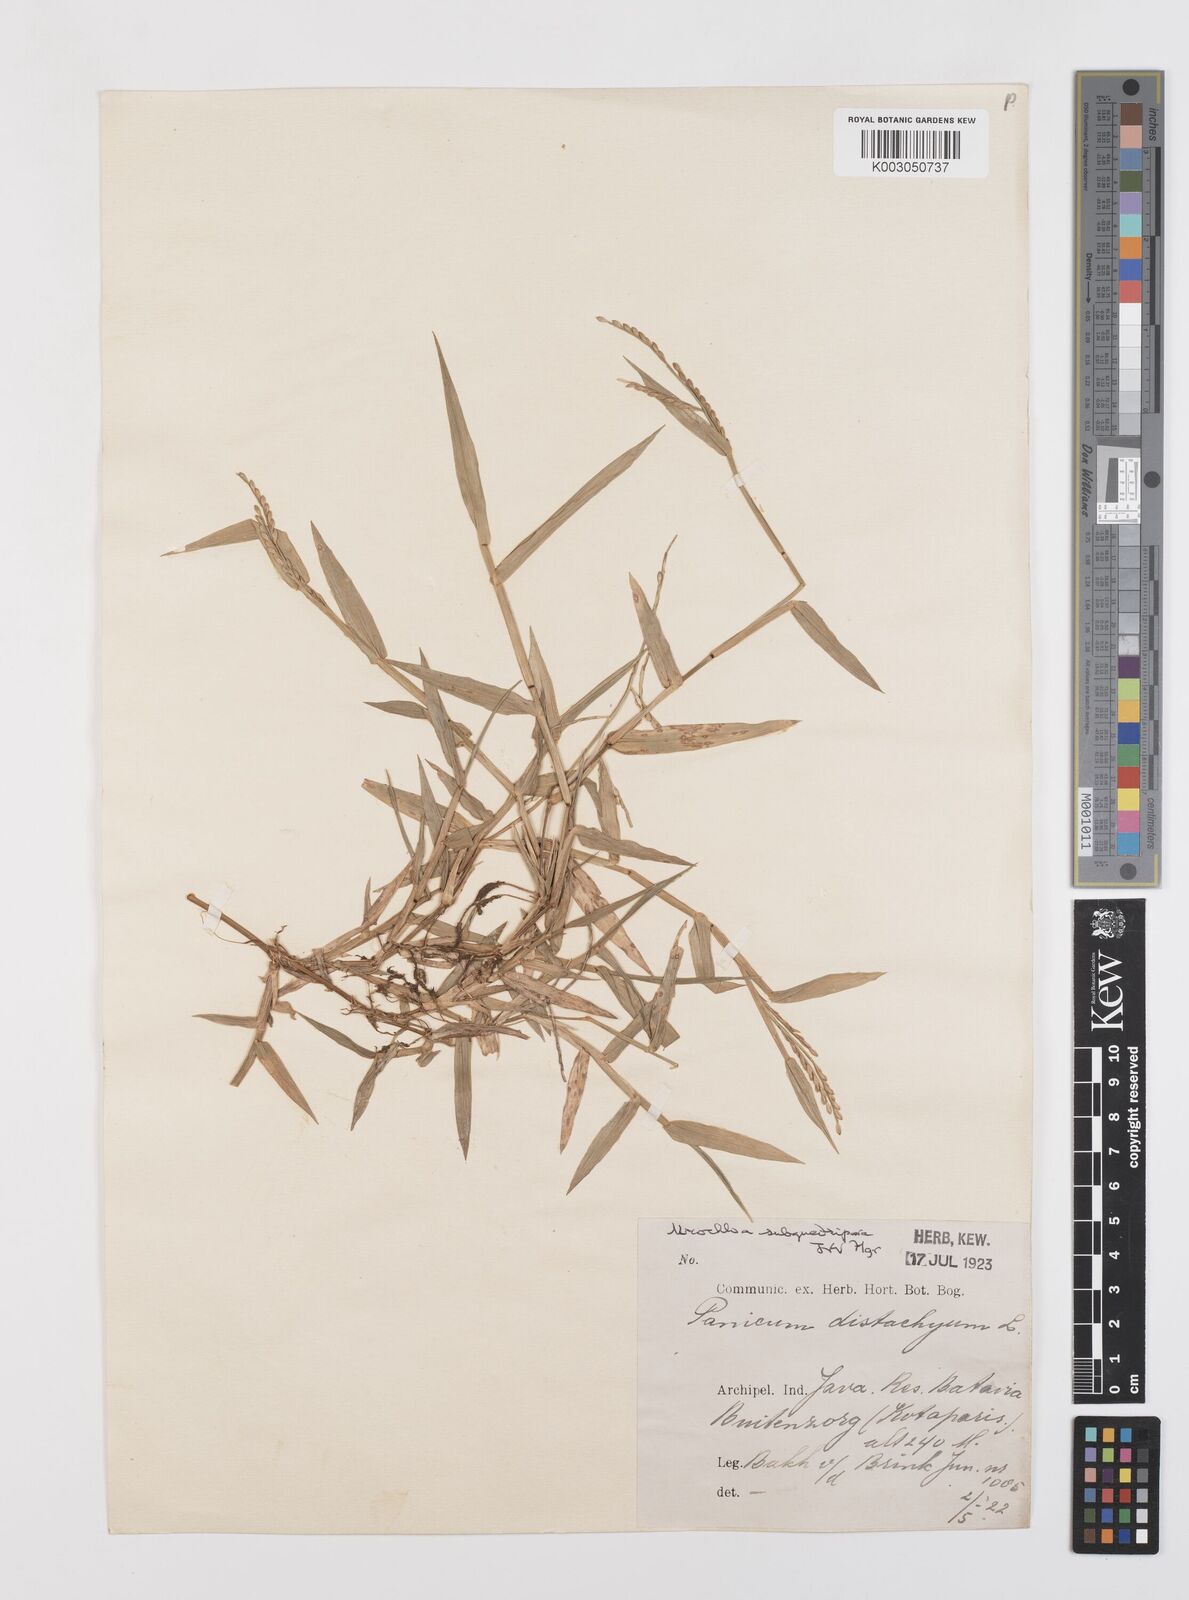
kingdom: Plantae
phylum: Tracheophyta
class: Liliopsida
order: Poales
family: Poaceae
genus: Urochloa
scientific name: Urochloa subquadripara
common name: Armgrass millet
